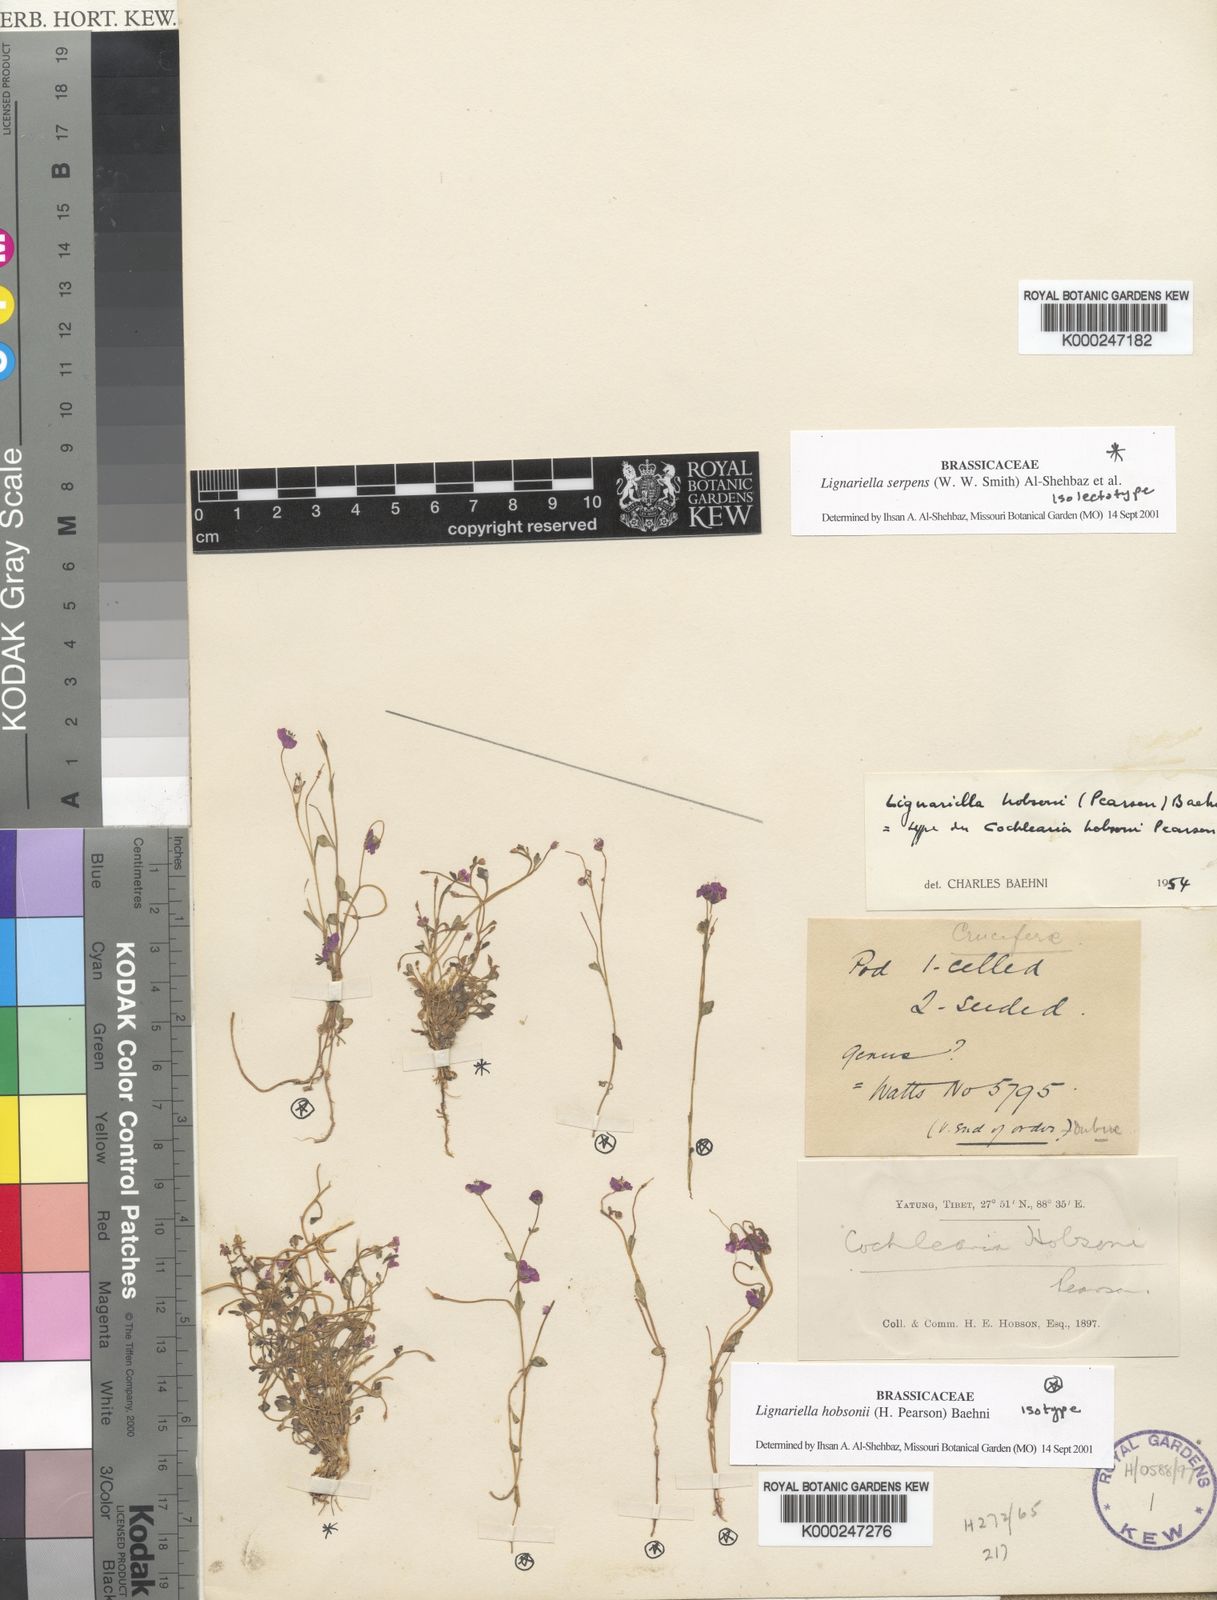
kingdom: Plantae
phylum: Tracheophyta
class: Magnoliopsida
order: Brassicales
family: Brassicaceae
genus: Aphragmus
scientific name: Aphragmus
